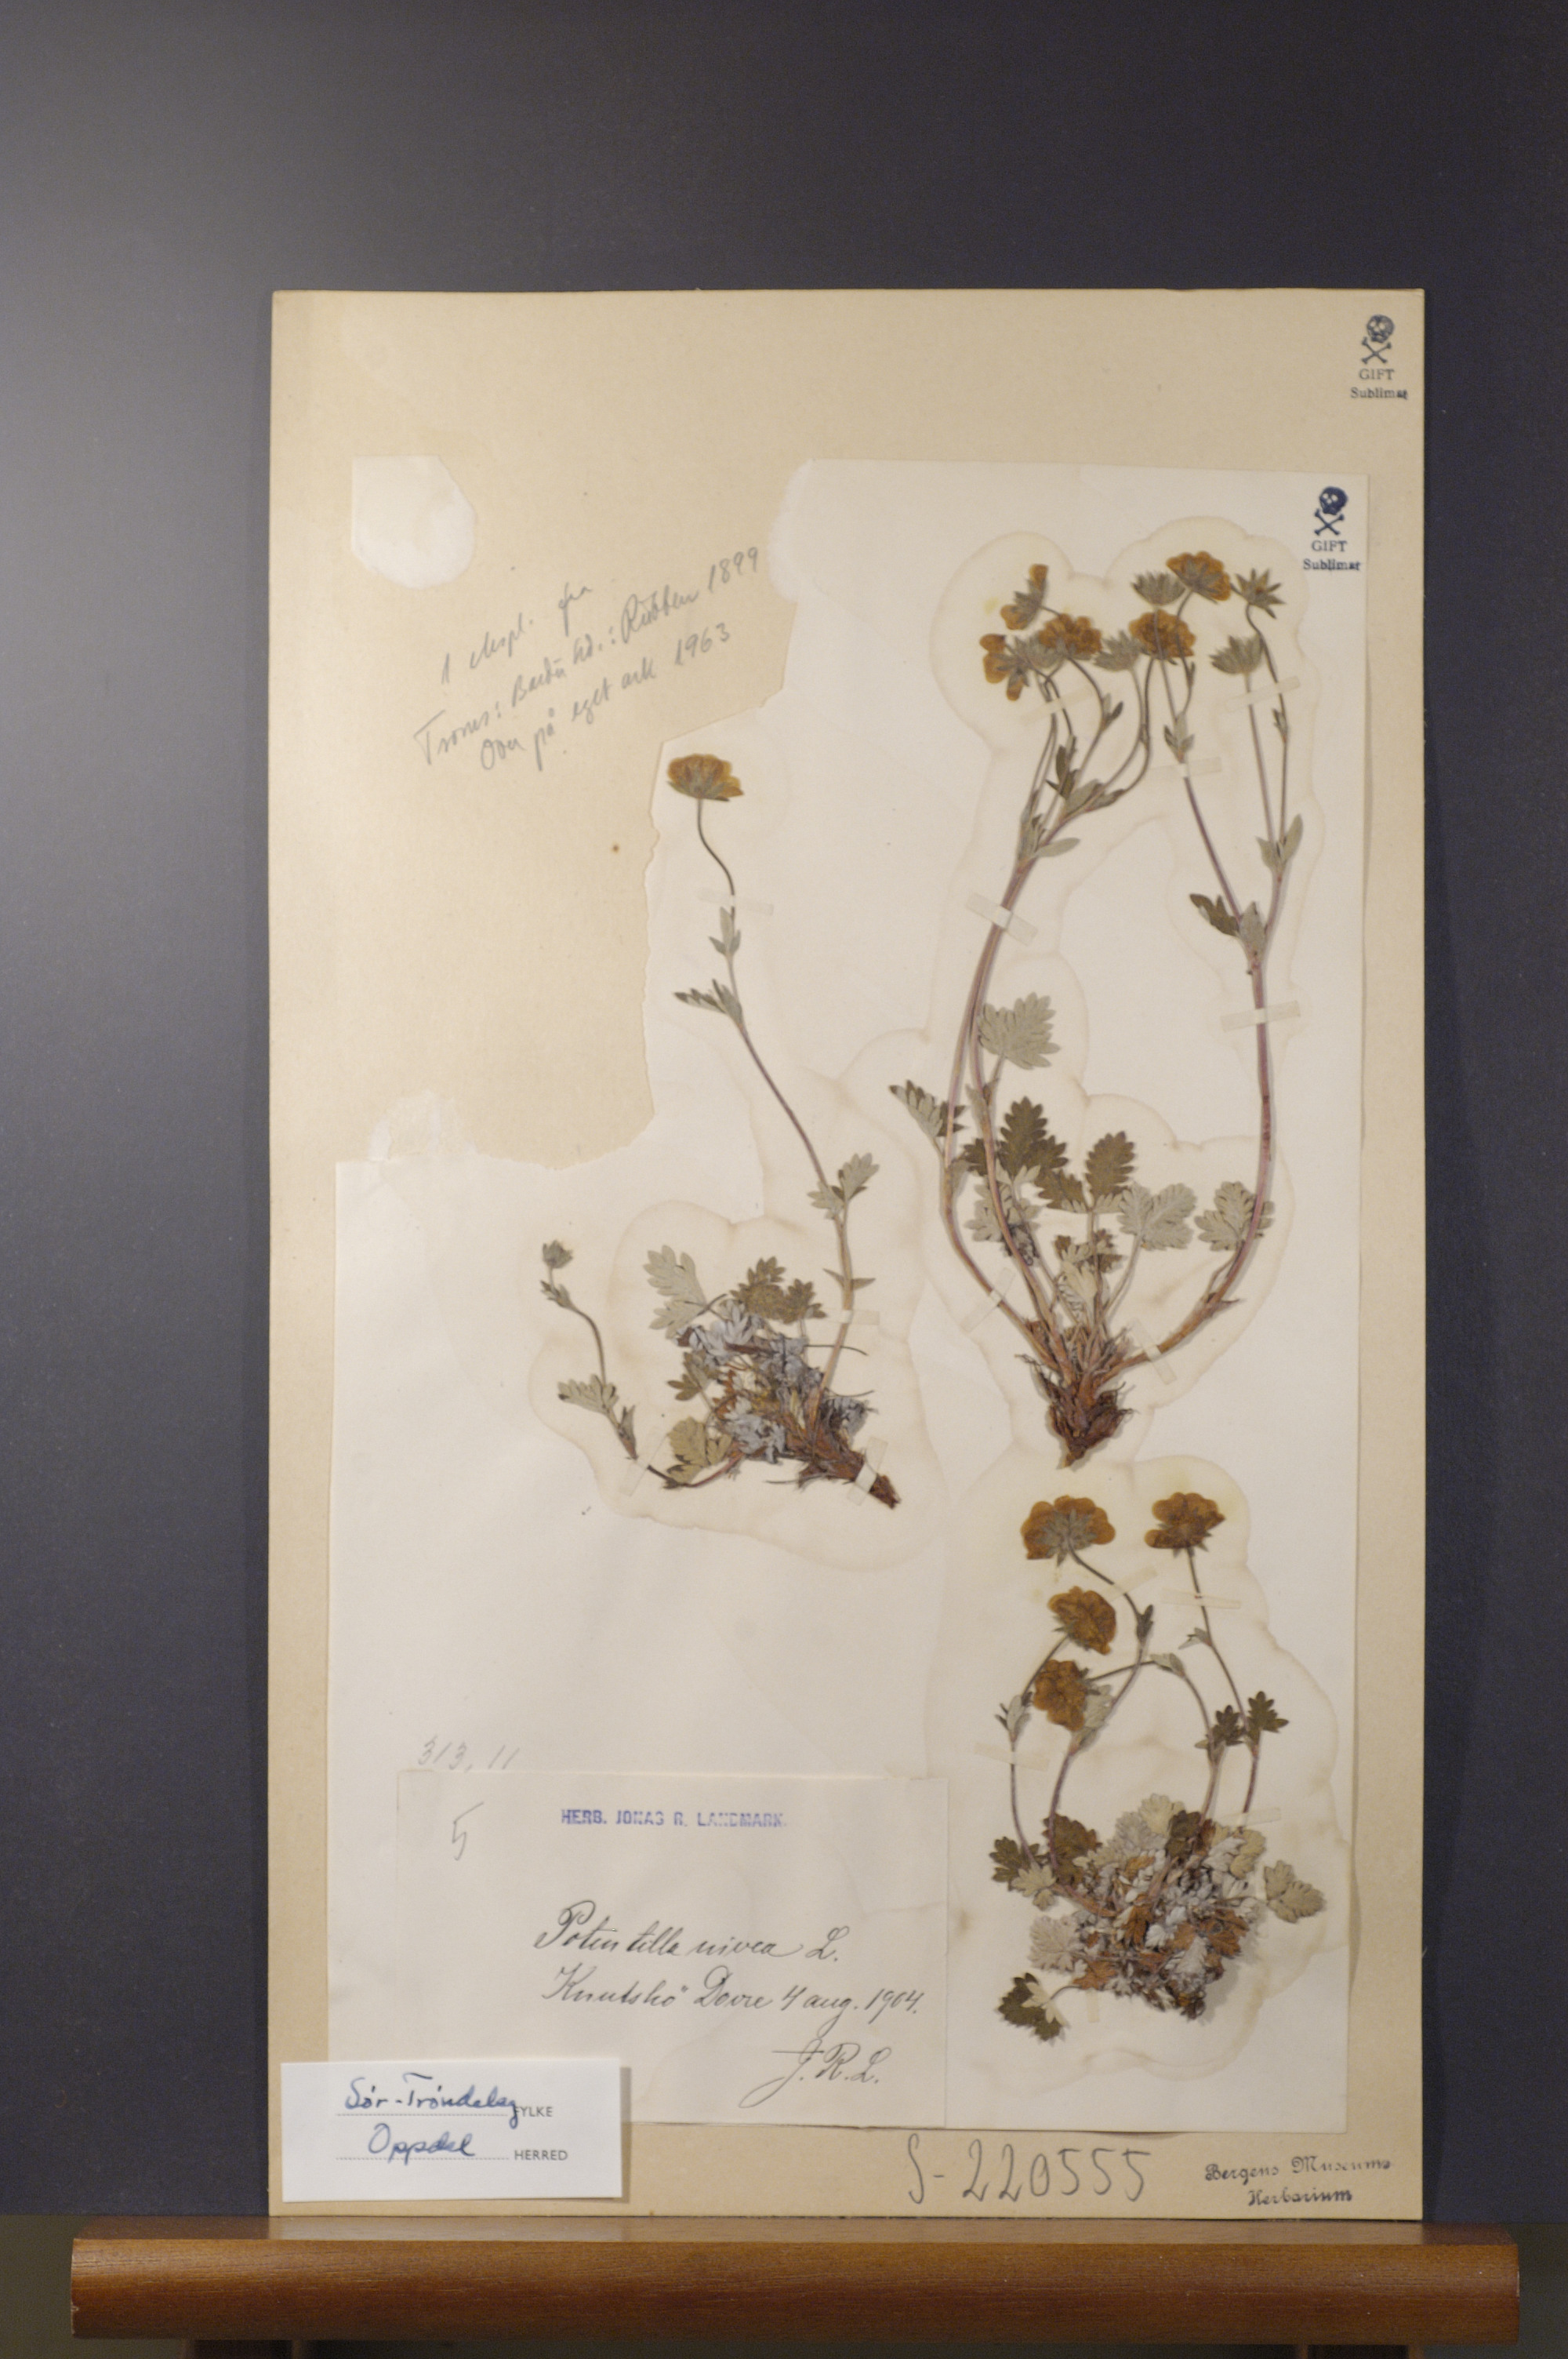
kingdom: Plantae
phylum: Tracheophyta
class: Magnoliopsida
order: Rosales
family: Rosaceae
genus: Potentilla
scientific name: Potentilla arenosa
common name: Bluff cinquefoil
